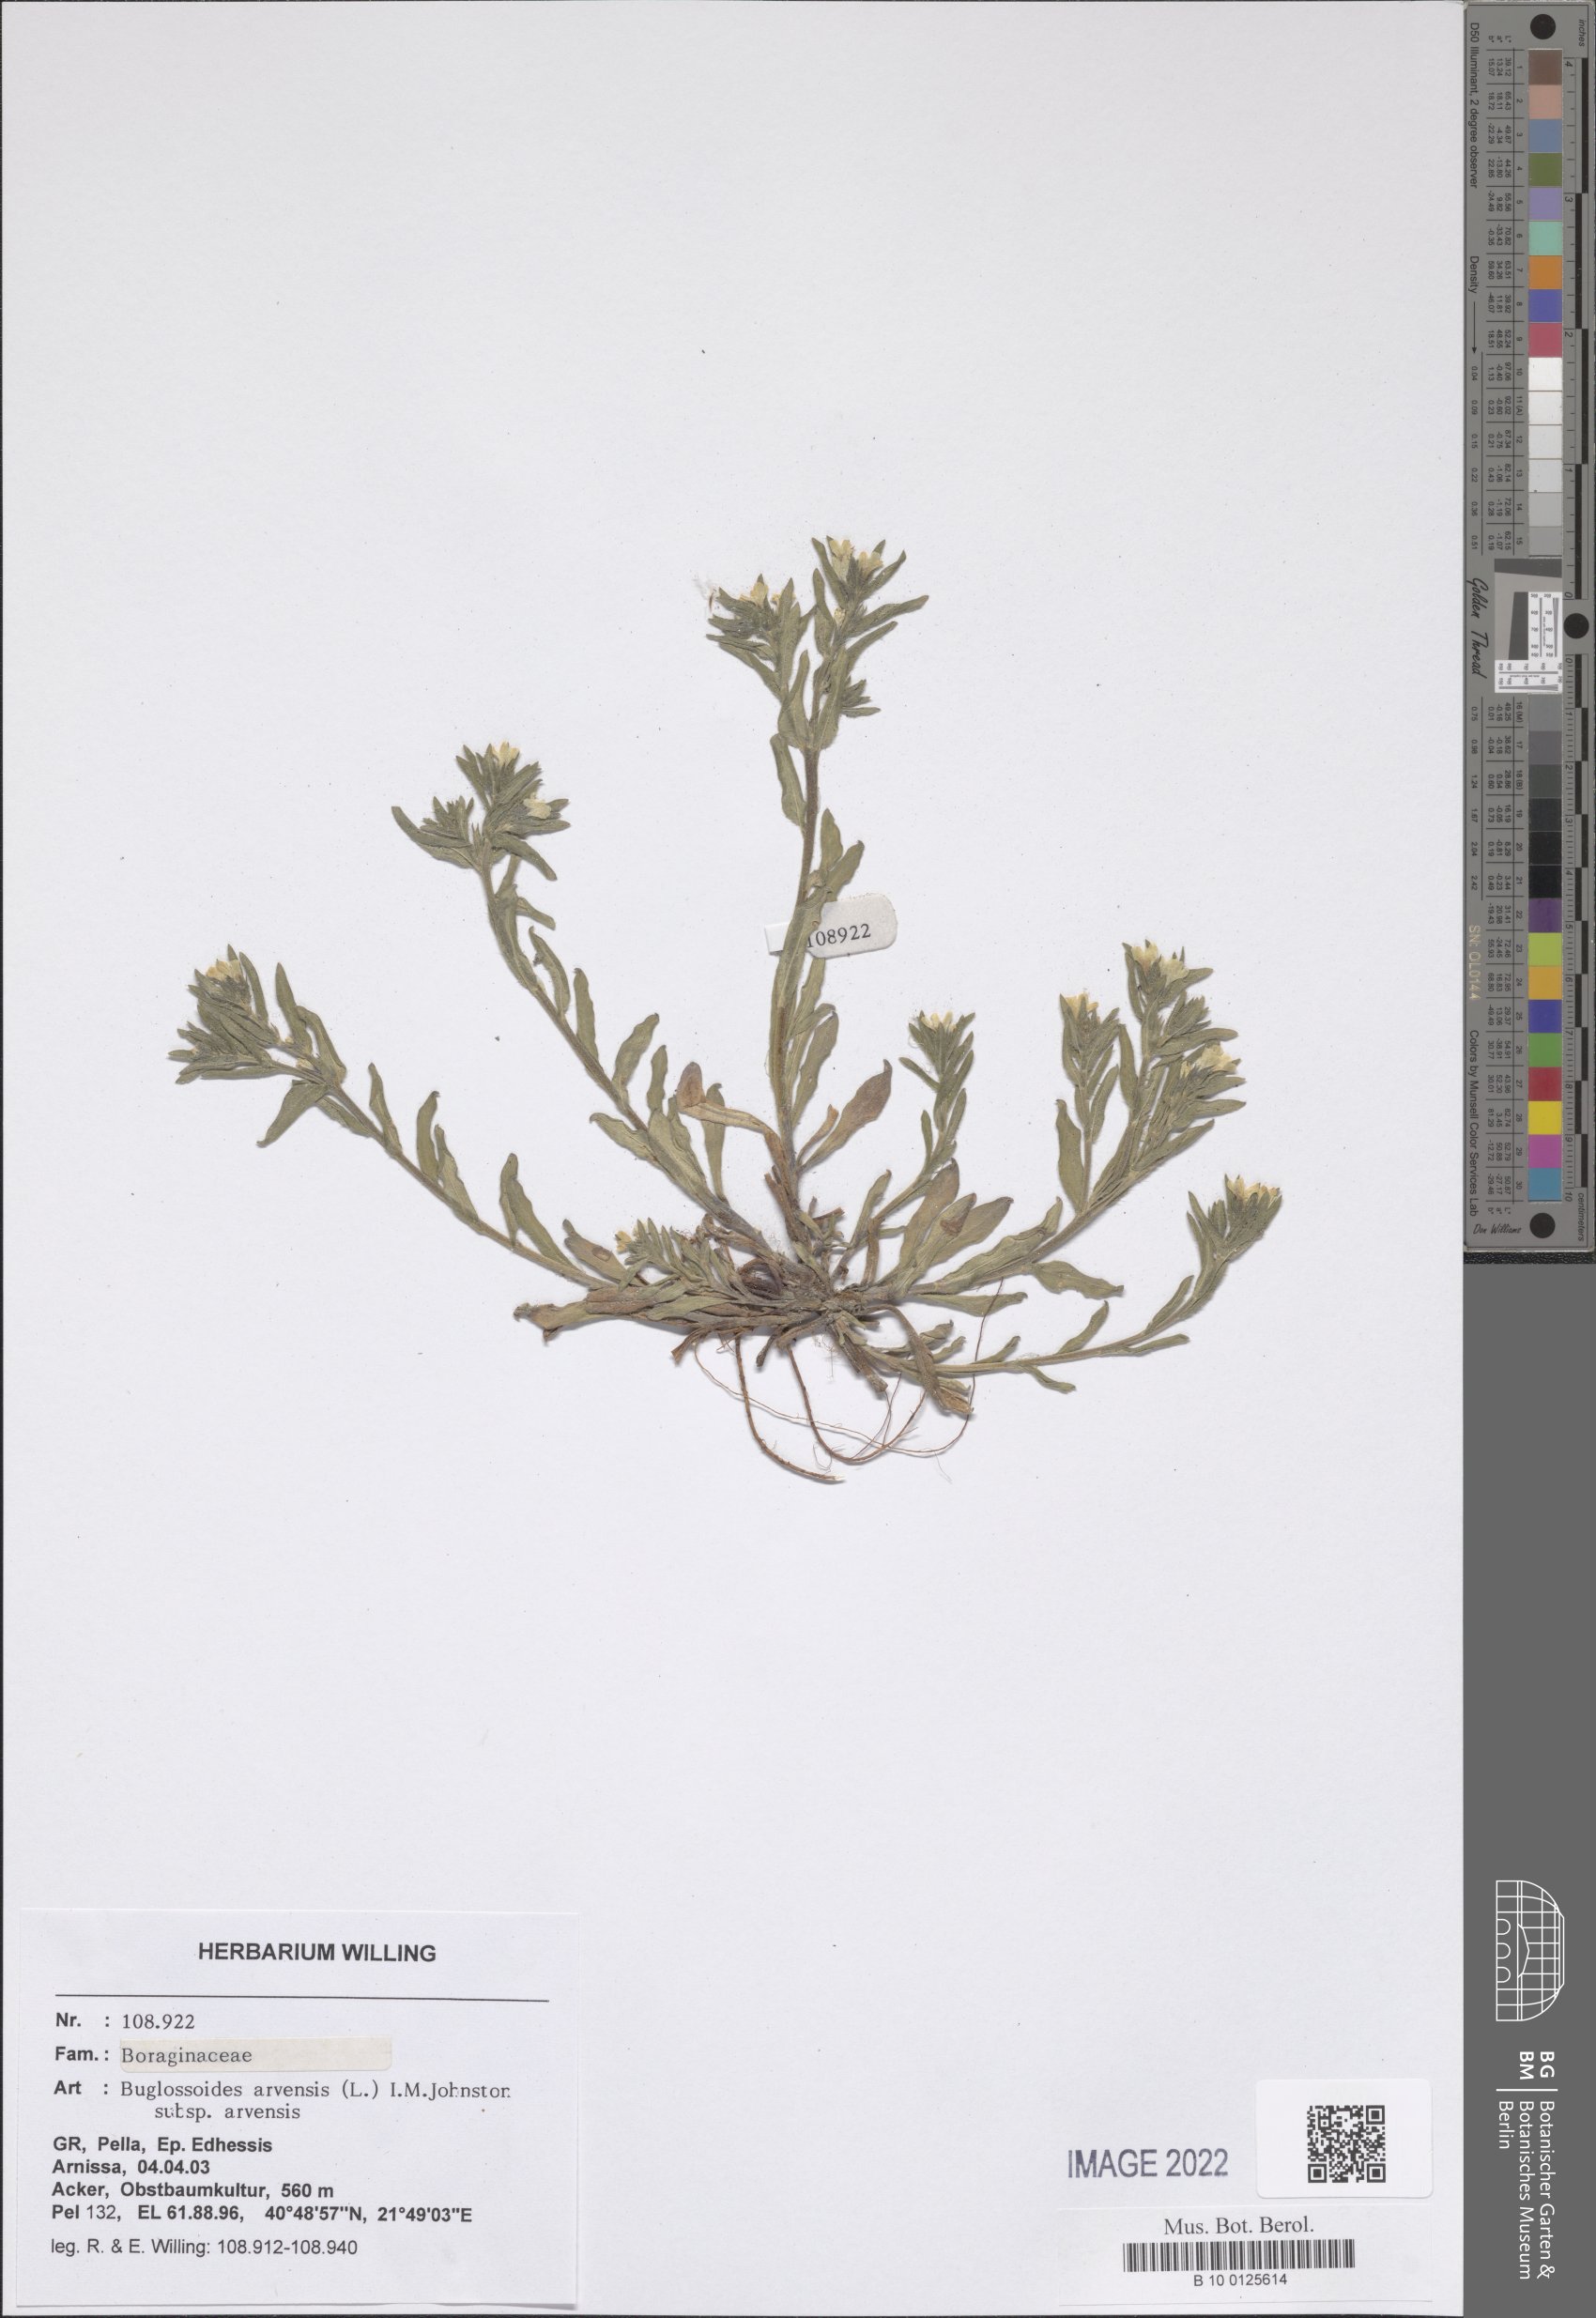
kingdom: Plantae
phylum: Tracheophyta
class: Magnoliopsida
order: Boraginales
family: Boraginaceae
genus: Buglossoides
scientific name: Buglossoides arvensis
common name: Corn gromwell
